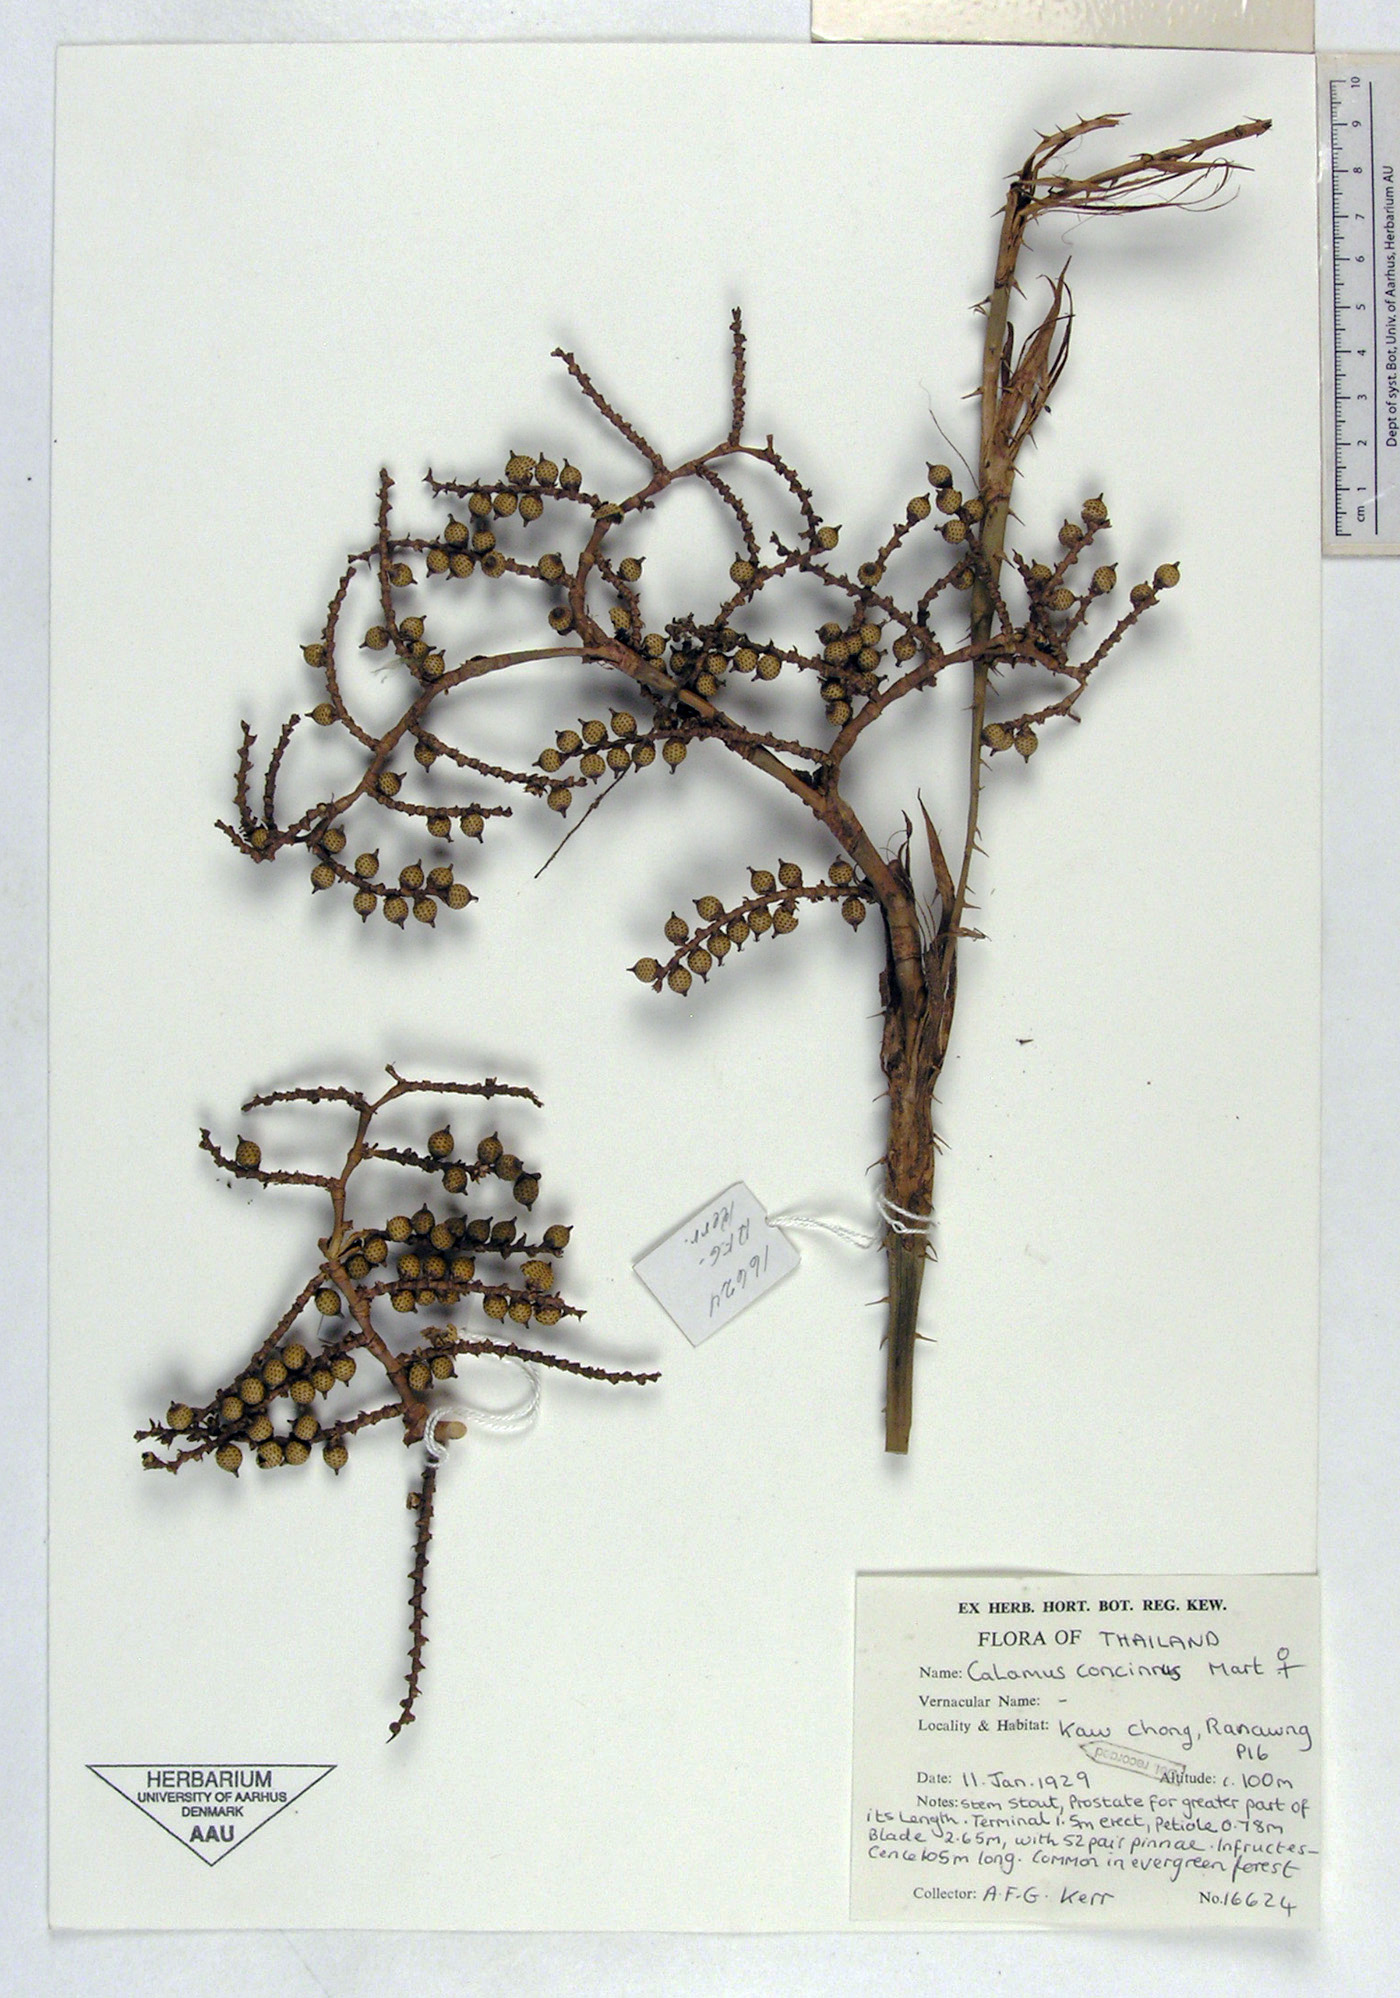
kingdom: Plantae
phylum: Tracheophyta
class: Liliopsida
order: Arecales
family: Arecaceae
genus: Calamus
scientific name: Calamus concinnus
